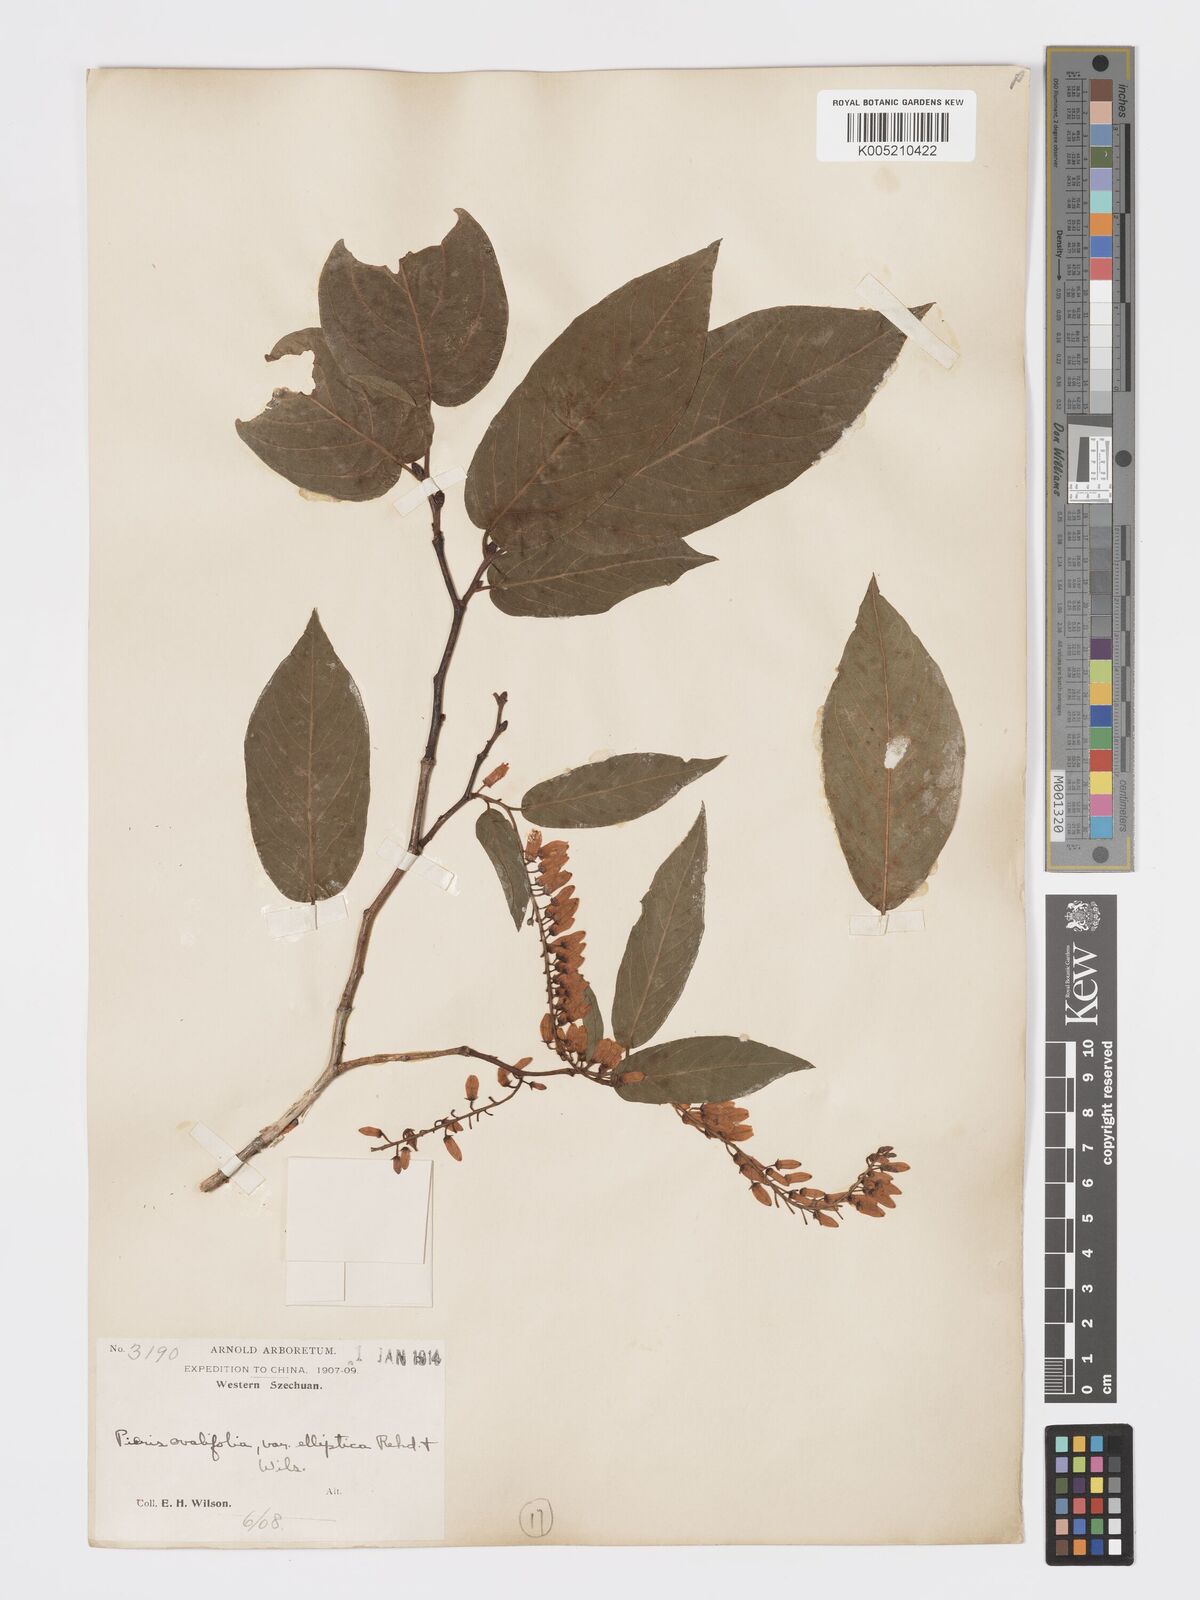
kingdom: Plantae
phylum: Tracheophyta
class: Magnoliopsida
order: Ericales
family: Ericaceae
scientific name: Ericaceae
